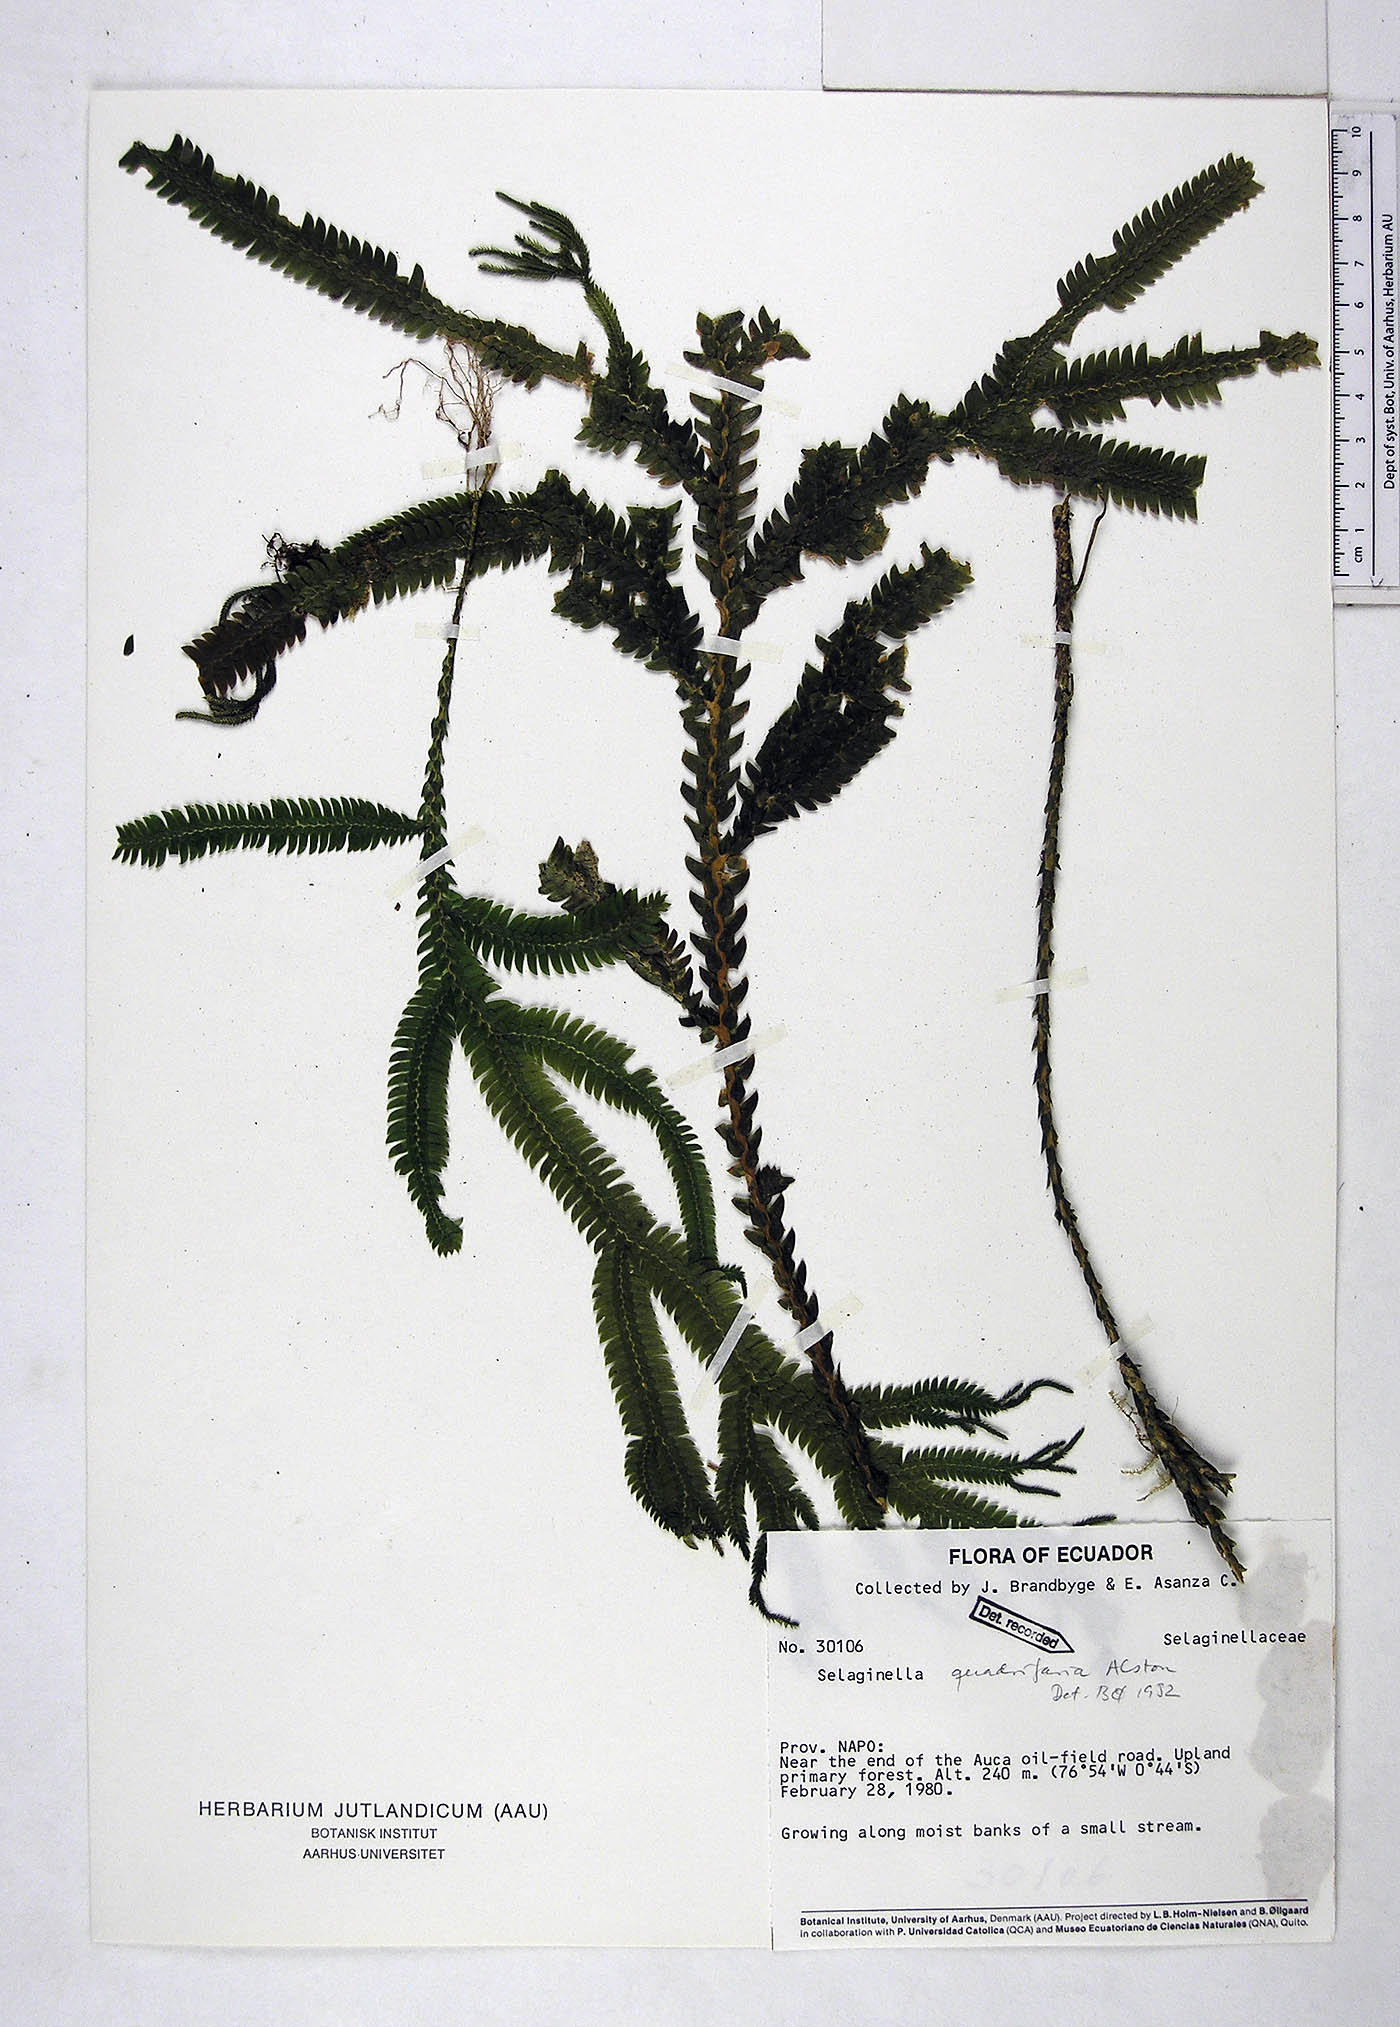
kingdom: Plantae
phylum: Tracheophyta
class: Lycopodiopsida
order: Selaginellales
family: Selaginellaceae
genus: Selaginella
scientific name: Selaginella quadrifaria
